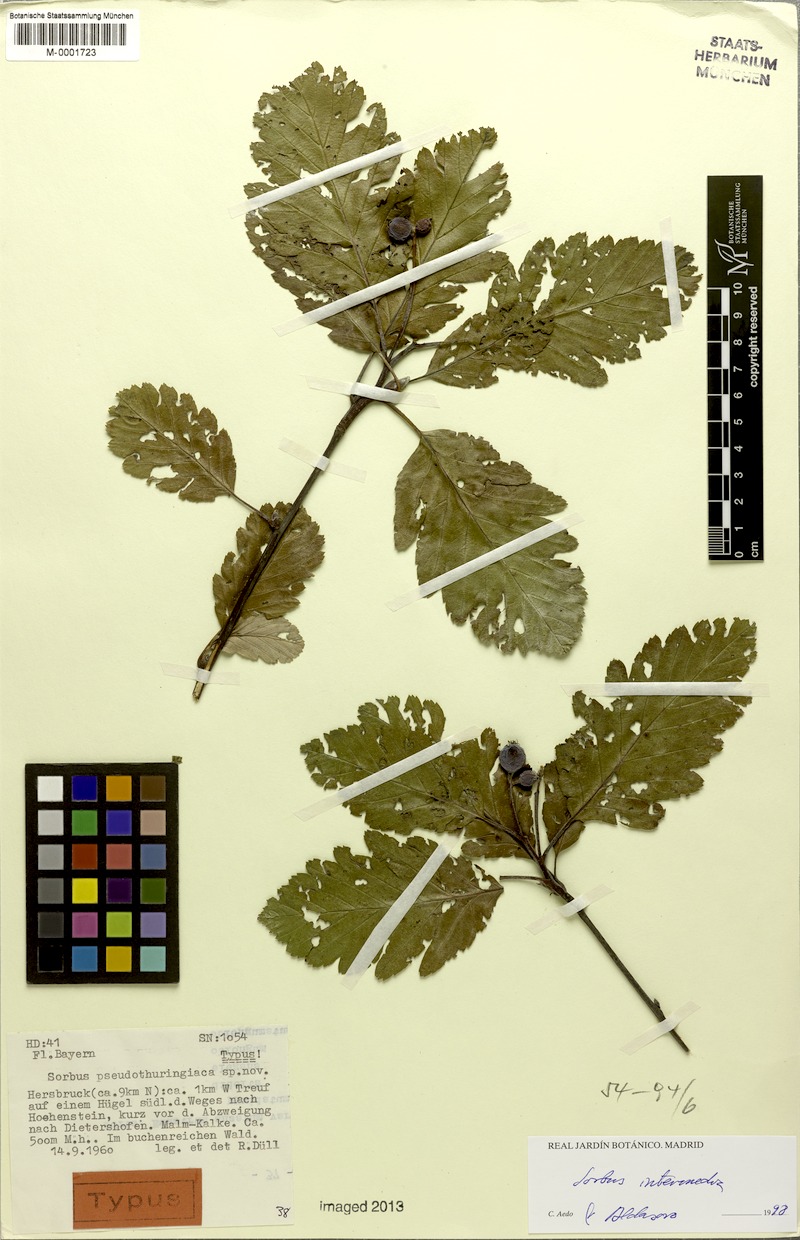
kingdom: Plantae
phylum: Tracheophyta
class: Magnoliopsida
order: Rosales
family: Rosaceae
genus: Scandosorbus
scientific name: Scandosorbus intermedia
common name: Swedish whitebeam
